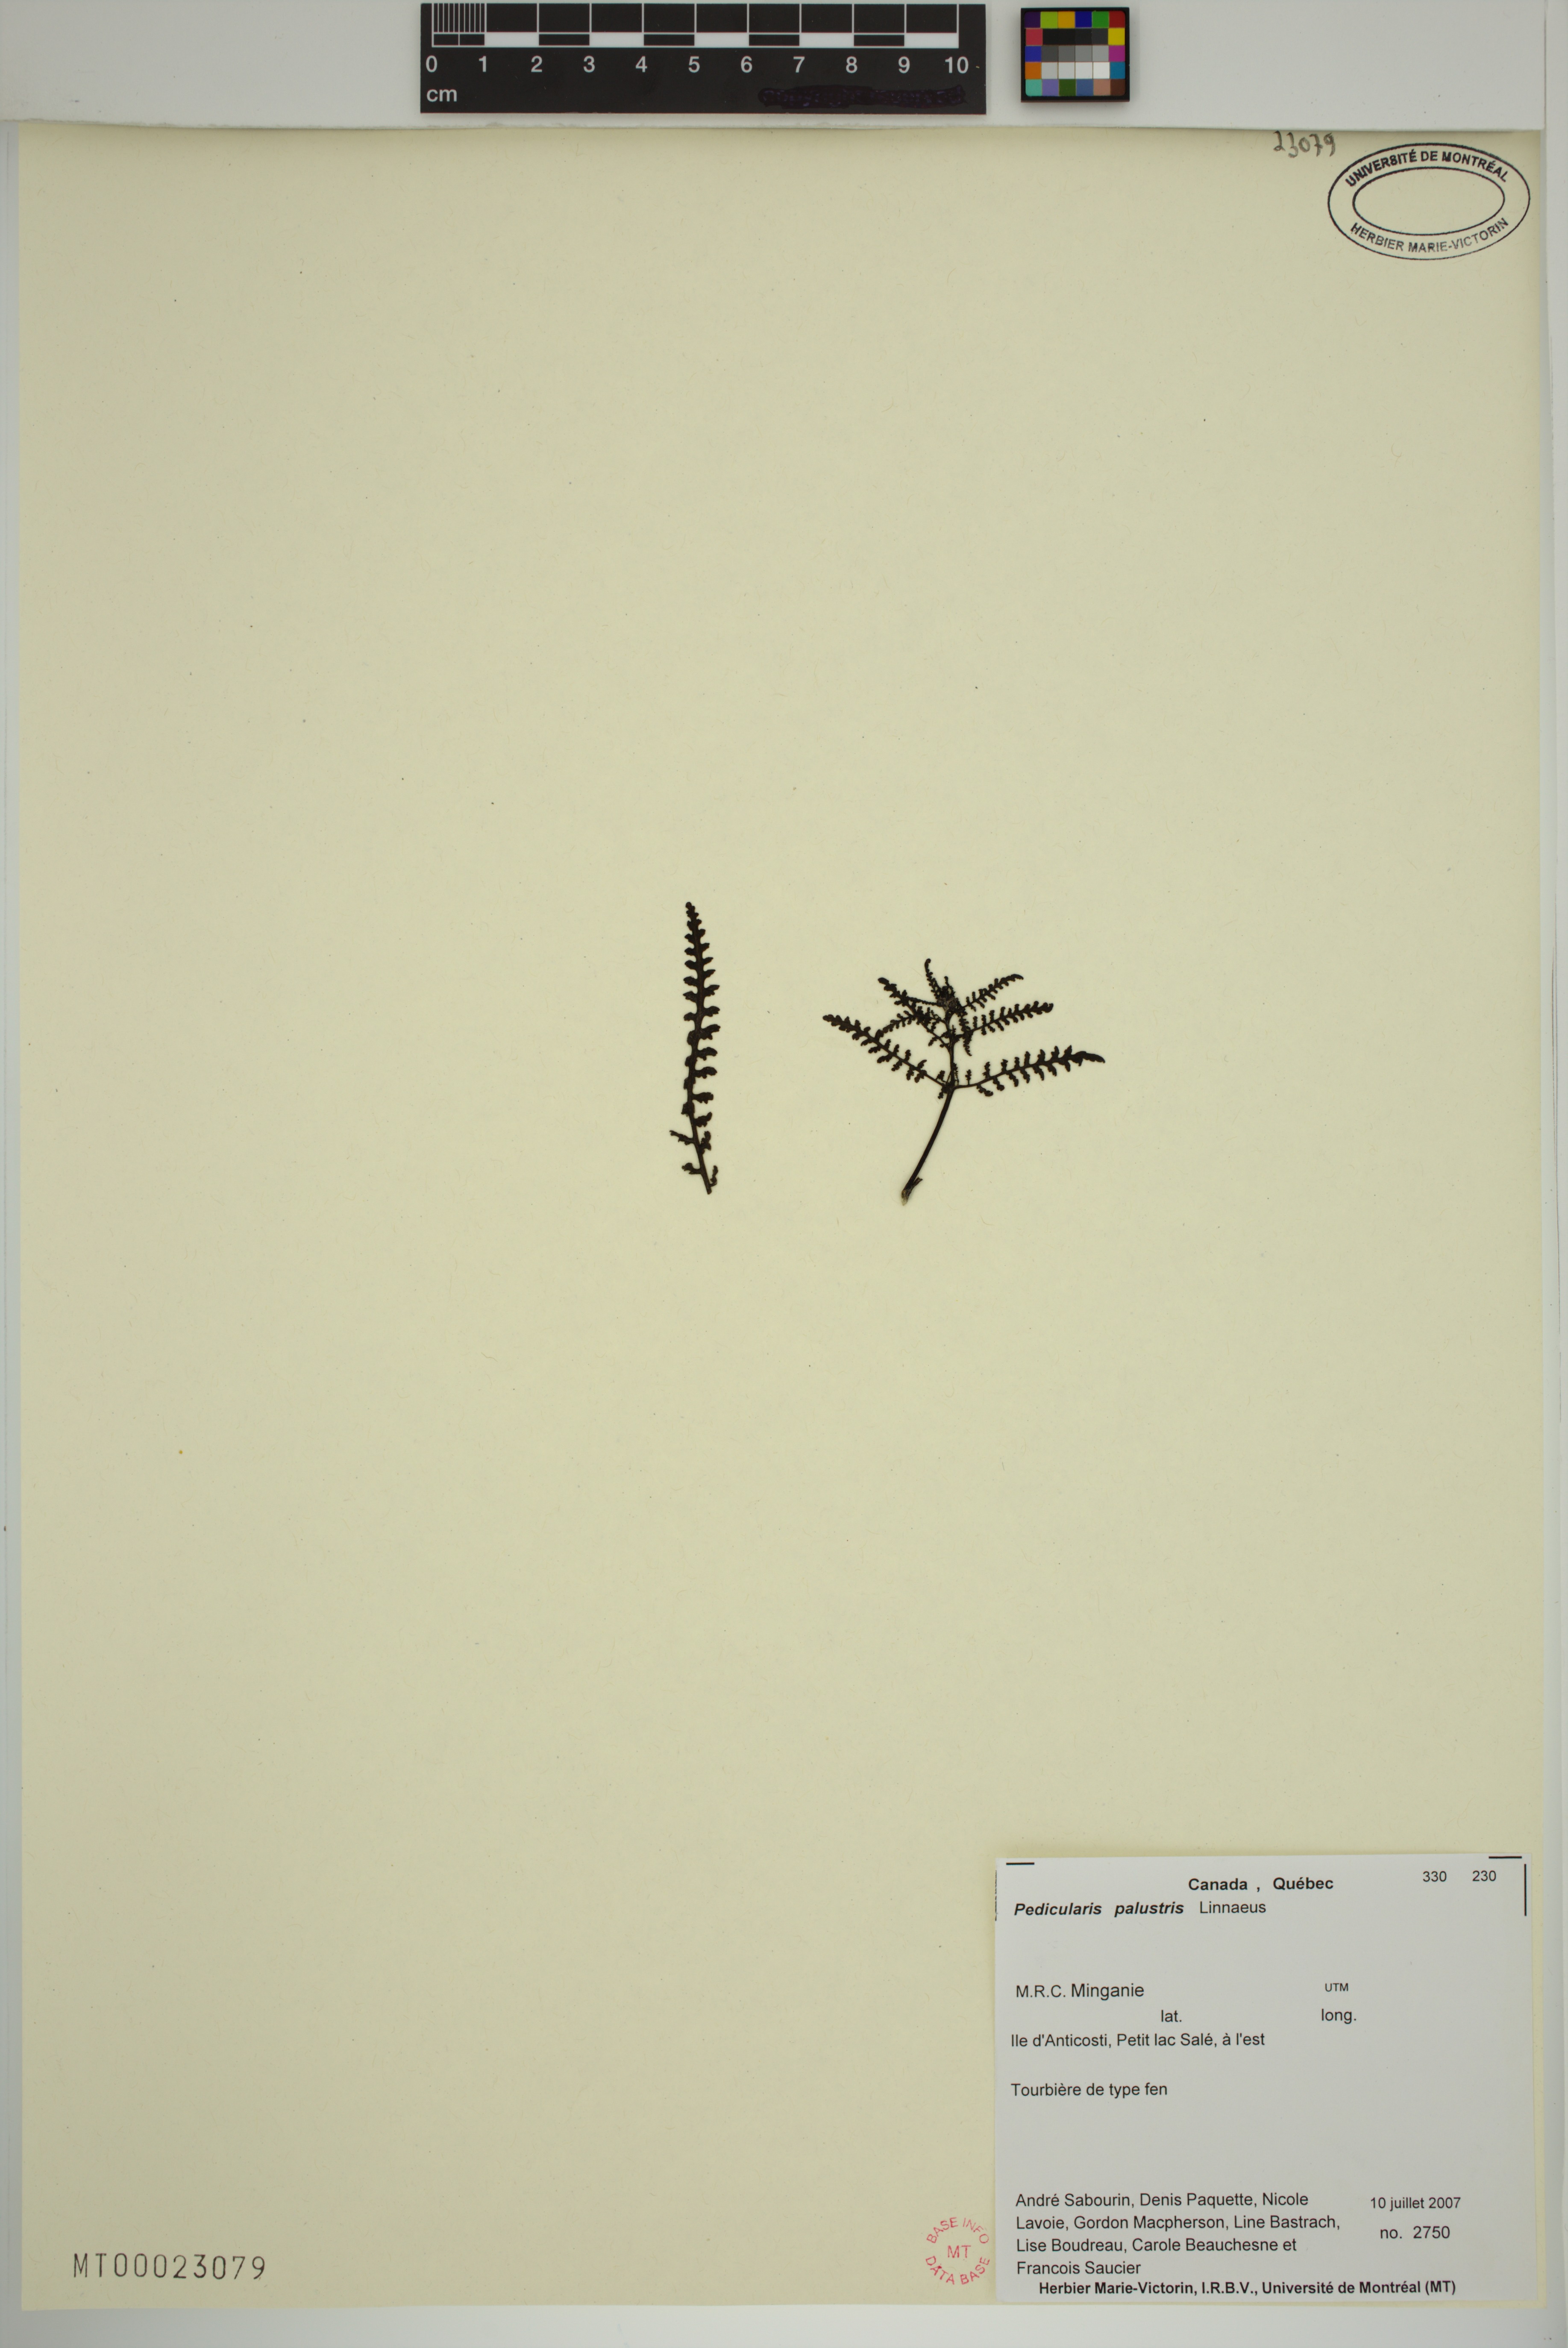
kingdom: Plantae
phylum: Tracheophyta
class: Magnoliopsida
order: Lamiales
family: Orobanchaceae
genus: Pedicularis
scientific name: Pedicularis palustris
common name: Marsh lousewort
